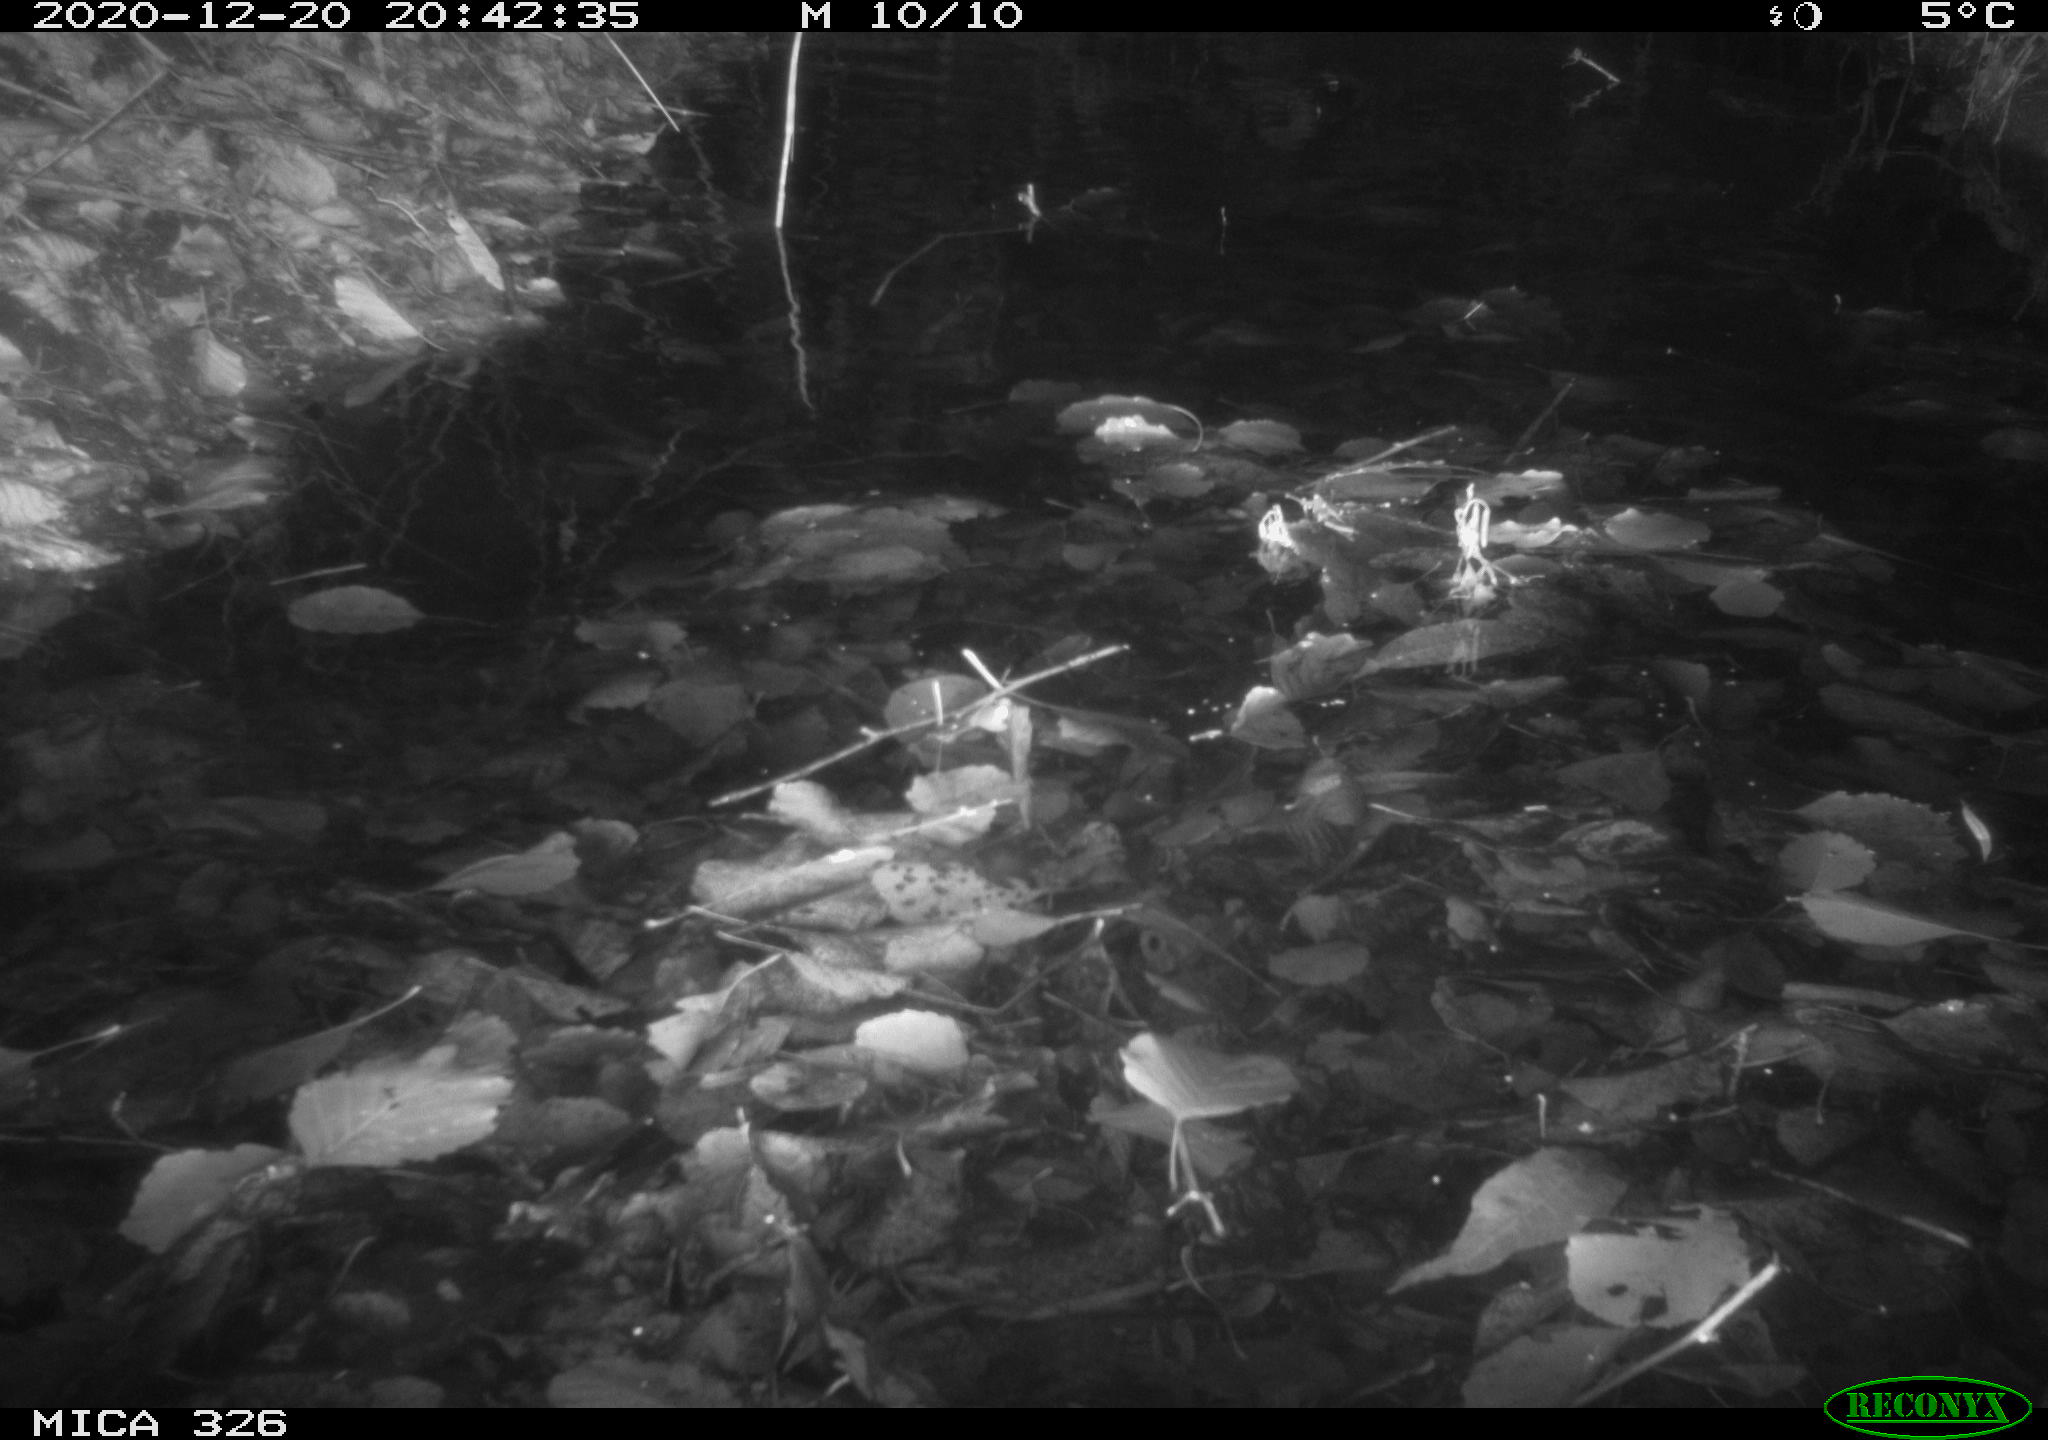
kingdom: Animalia
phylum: Chordata
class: Mammalia
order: Rodentia
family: Muridae
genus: Rattus
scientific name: Rattus norvegicus
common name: Brown rat
